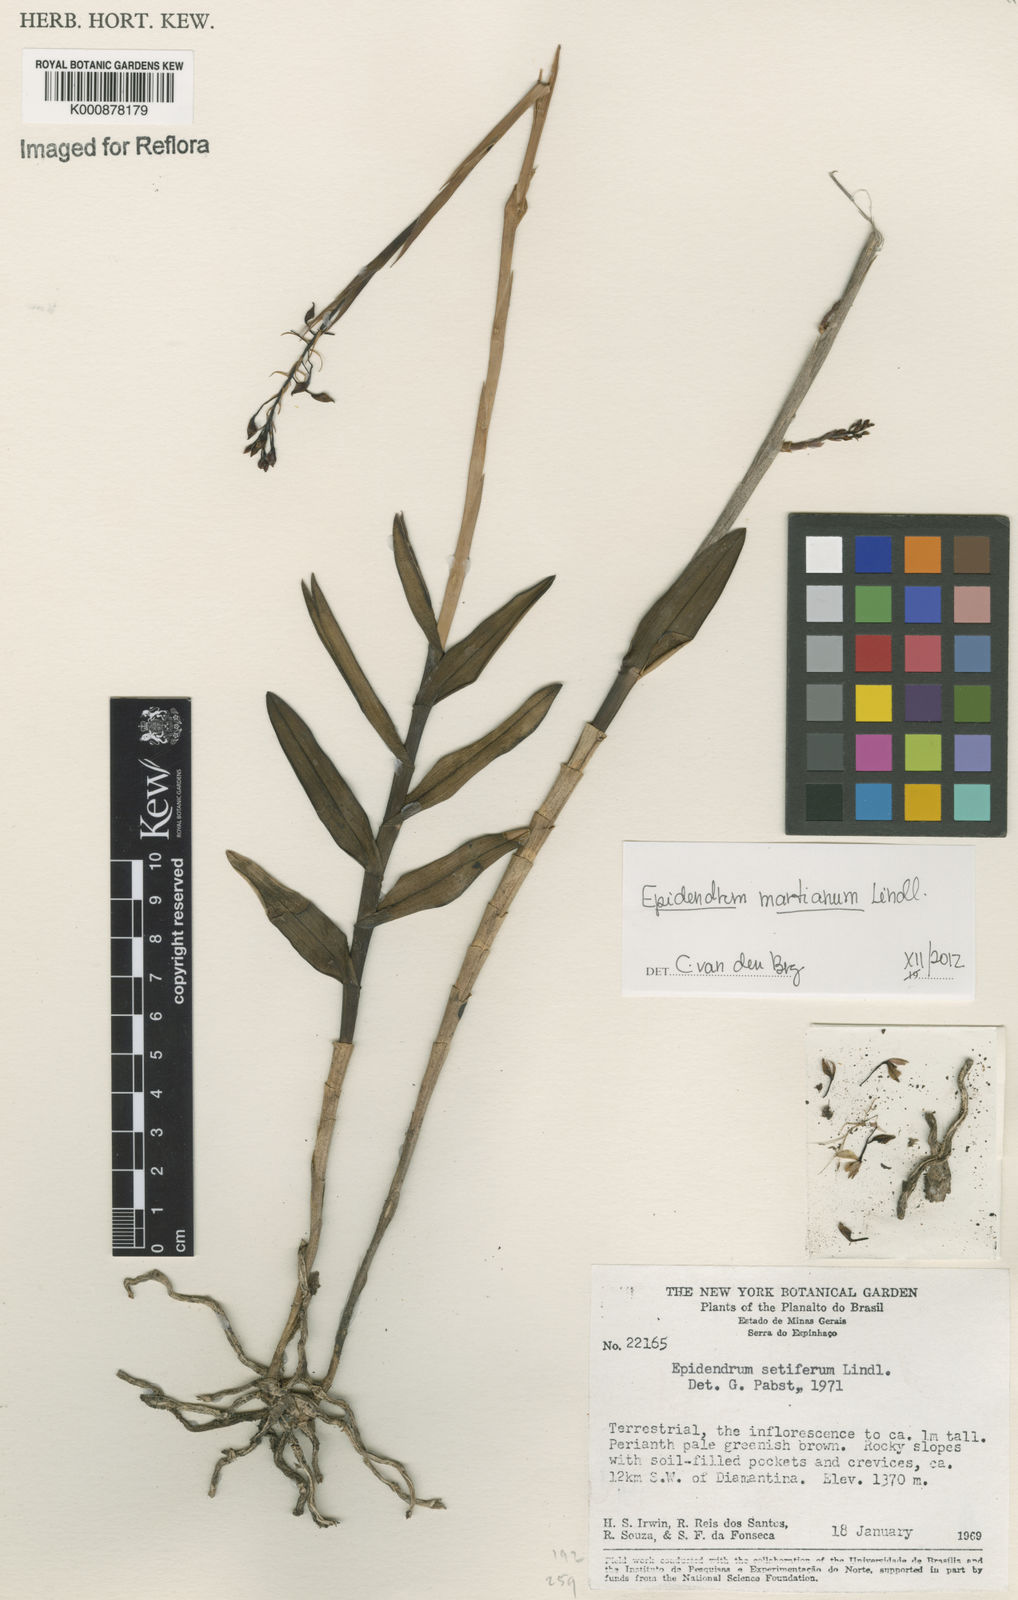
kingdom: Plantae
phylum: Tracheophyta
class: Liliopsida
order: Asparagales
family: Orchidaceae
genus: Epidendrum
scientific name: Epidendrum martianum
